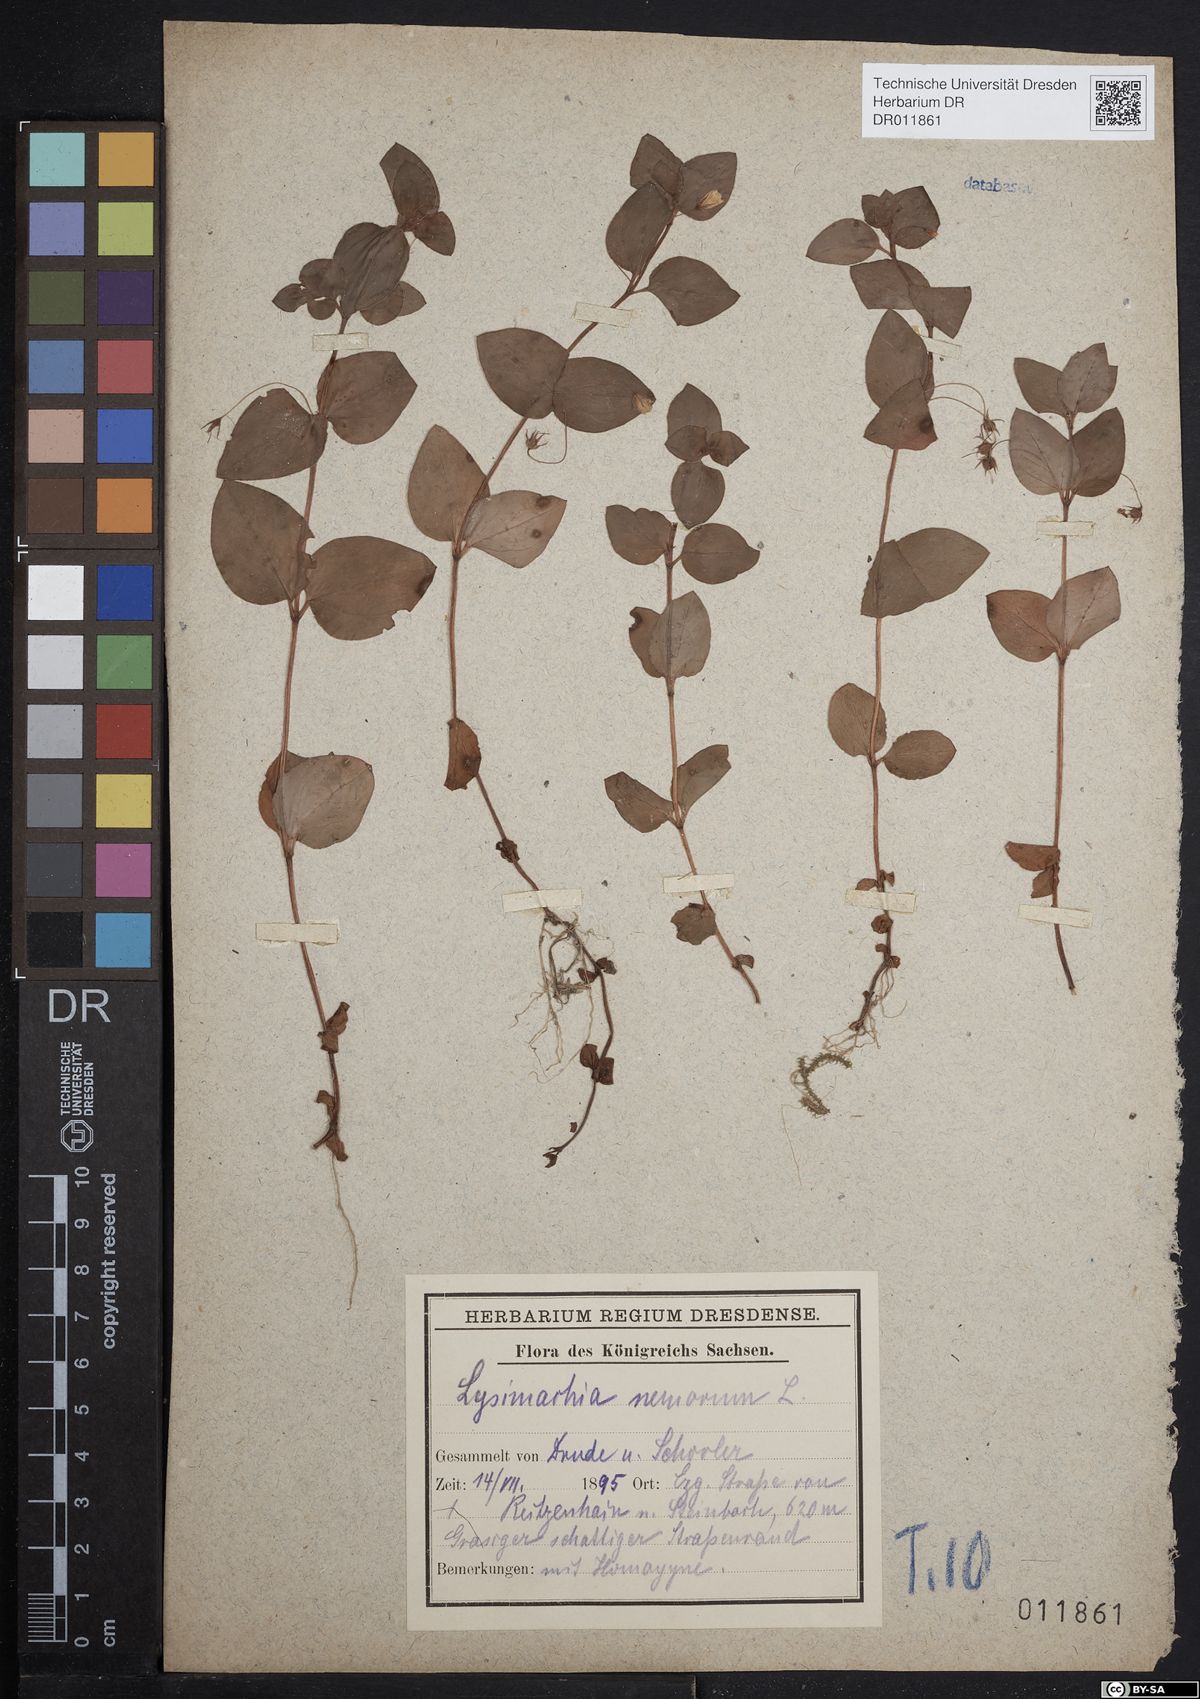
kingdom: Plantae
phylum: Tracheophyta
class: Magnoliopsida
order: Ericales
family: Primulaceae
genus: Lysimachia
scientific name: Lysimachia nemorum
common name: Yellow pimpernel
